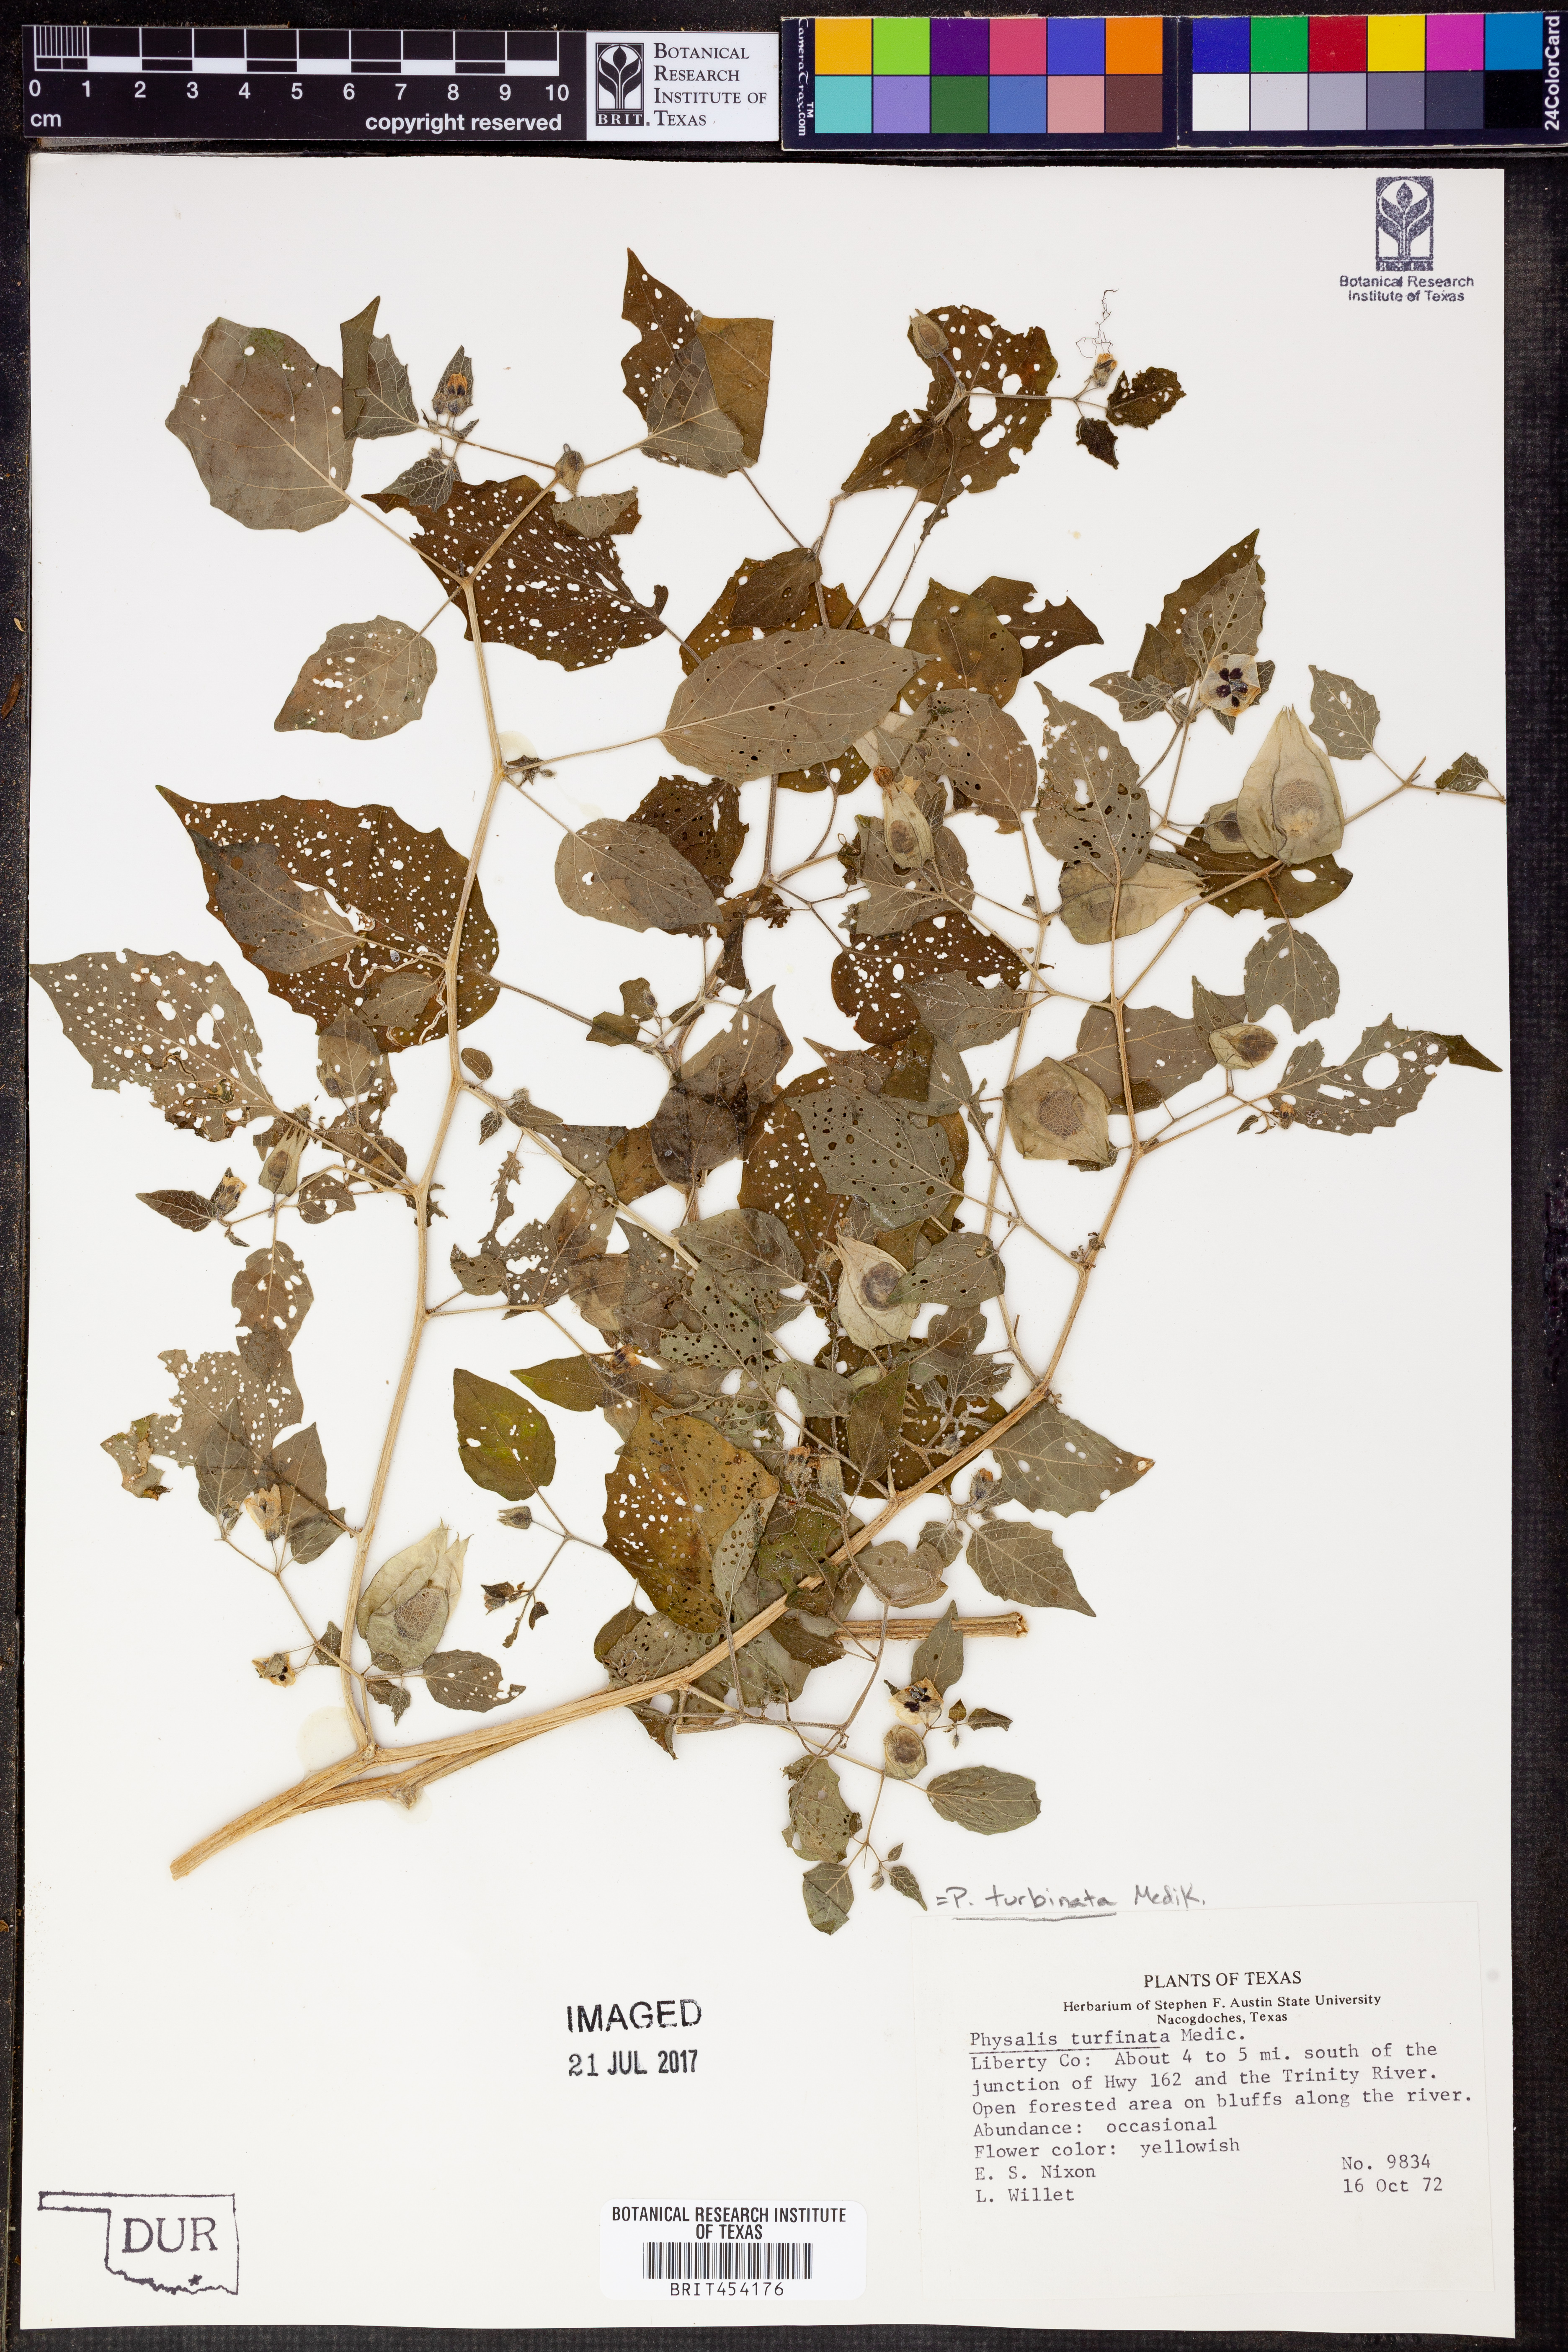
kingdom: Plantae
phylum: Tracheophyta
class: Magnoliopsida
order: Solanales
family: Solanaceae
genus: Physalis
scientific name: Physalis pubescens
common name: Downy ground-cherry
